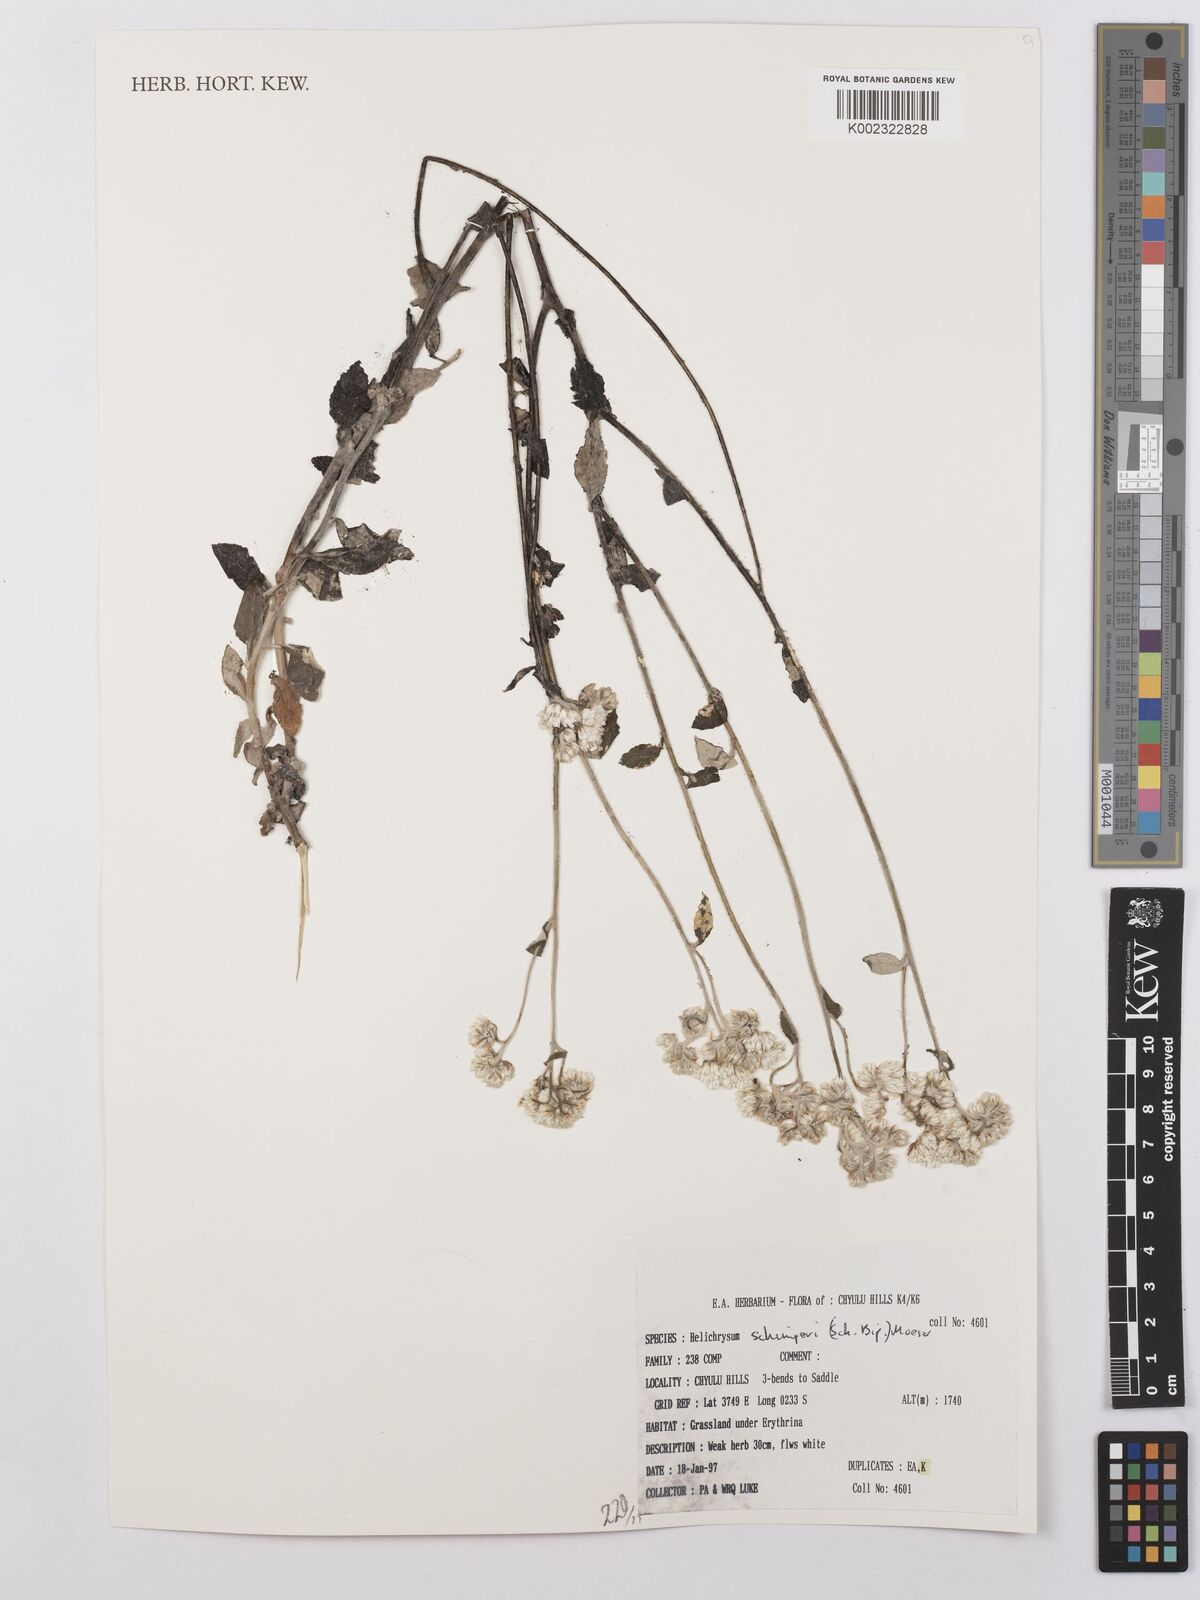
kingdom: Plantae
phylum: Tracheophyta
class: Magnoliopsida
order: Asterales
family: Asteraceae
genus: Helichrysum
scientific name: Helichrysum schimperi
